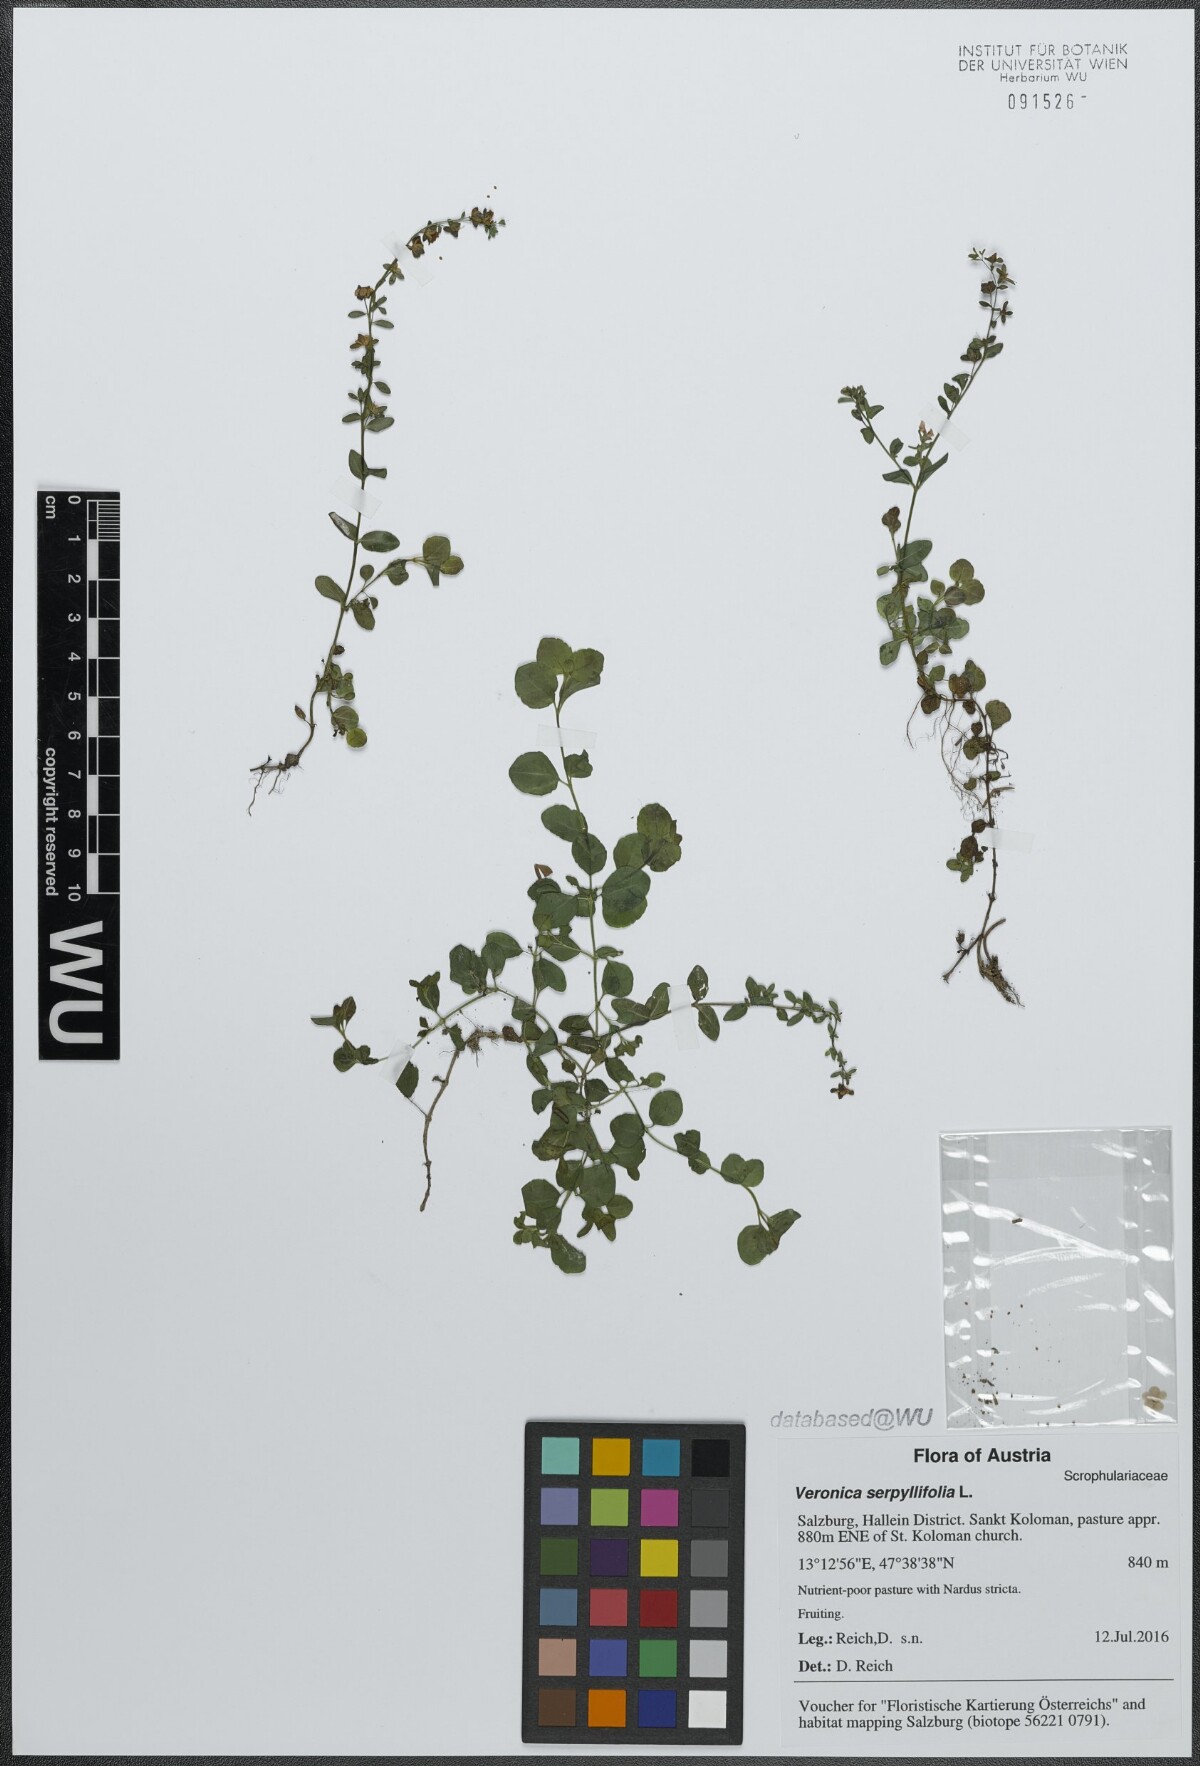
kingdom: Plantae
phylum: Tracheophyta
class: Magnoliopsida
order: Lamiales
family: Plantaginaceae
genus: Veronica
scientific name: Veronica serpyllifolia
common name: Thyme-leaved speedwell
